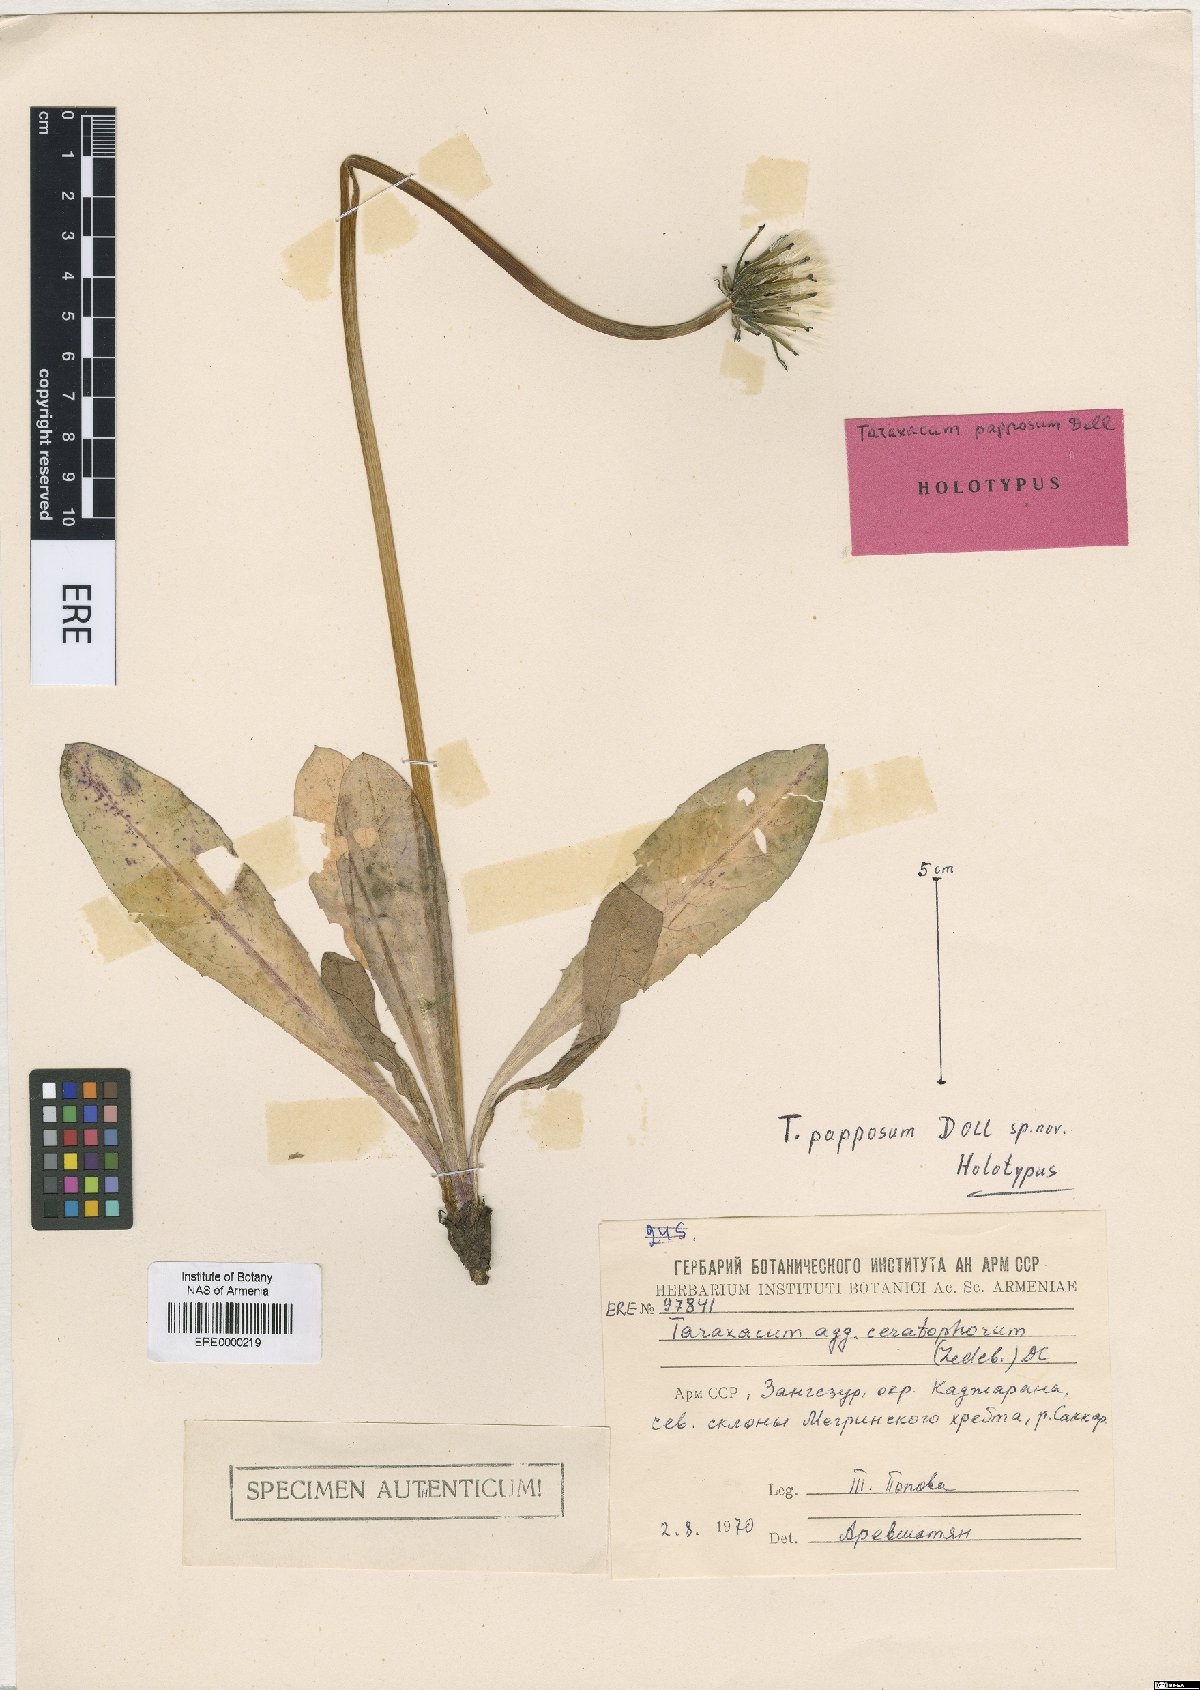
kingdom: Plantae
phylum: Tracheophyta
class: Magnoliopsida
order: Asterales
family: Asteraceae
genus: Taraxacum
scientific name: Taraxacum papposum
